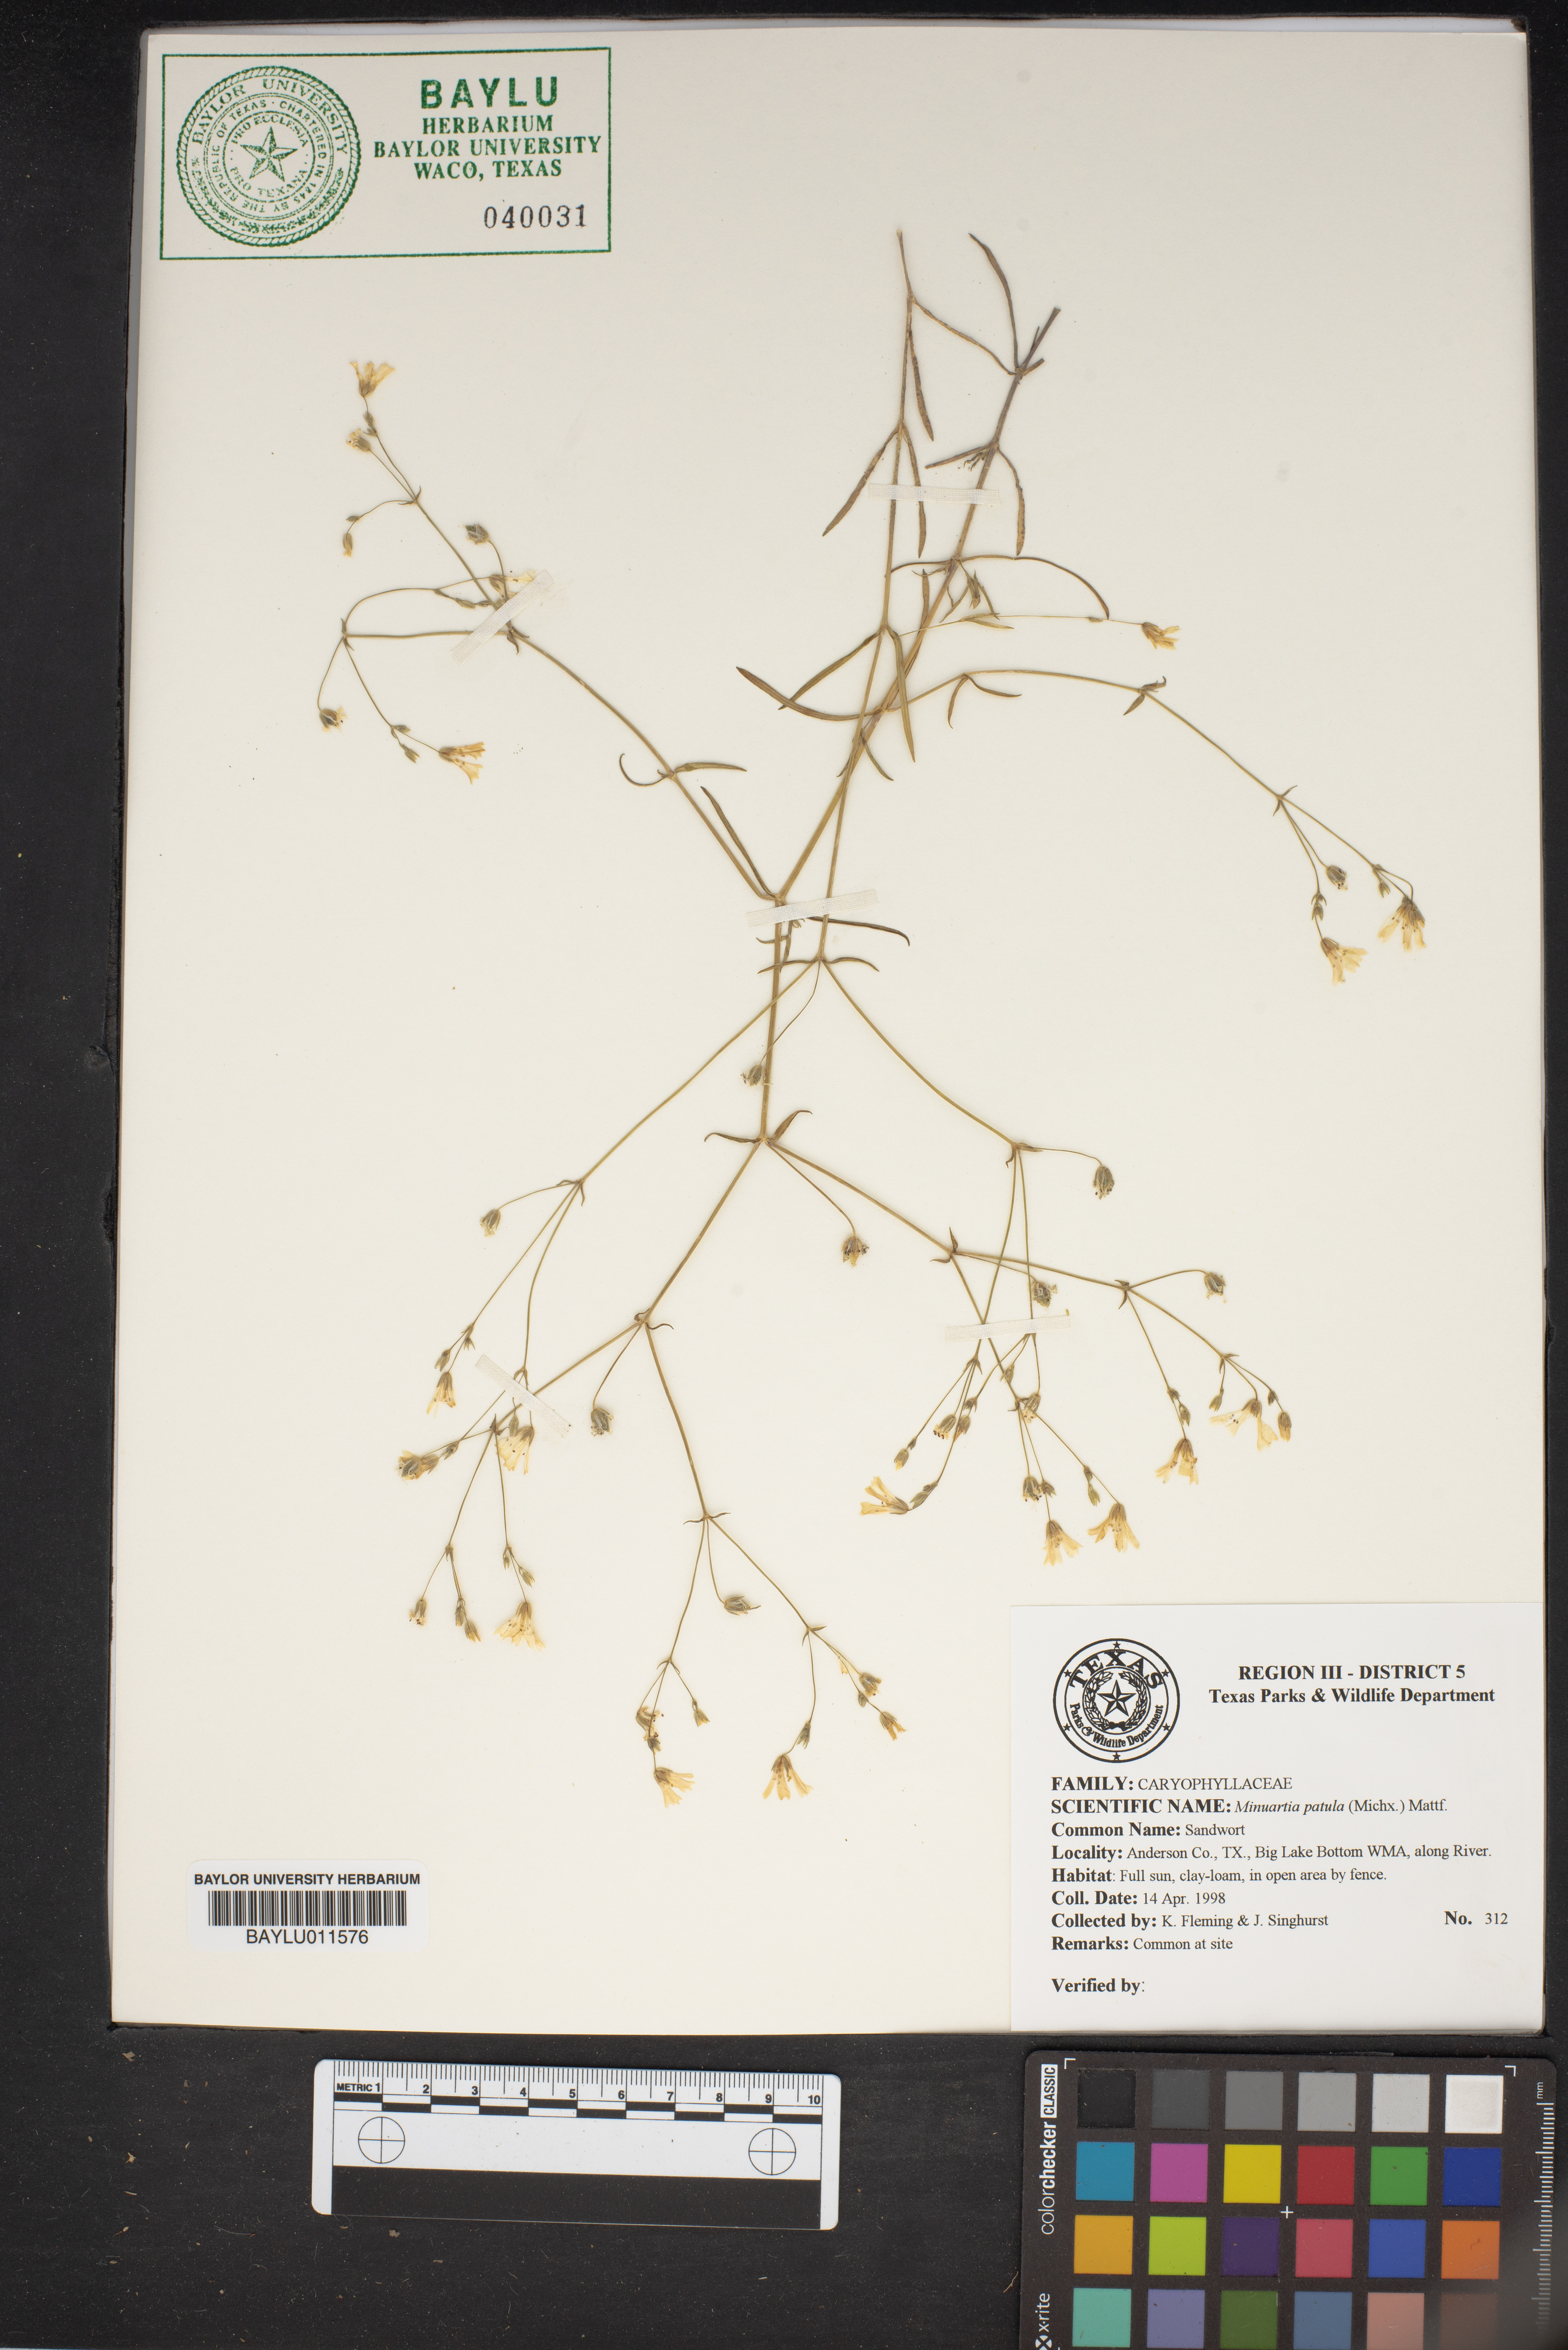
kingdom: Plantae
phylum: Tracheophyta
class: Magnoliopsida
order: Caryophyllales
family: Caryophyllaceae
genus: Mononeuria
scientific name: Mononeuria patula
